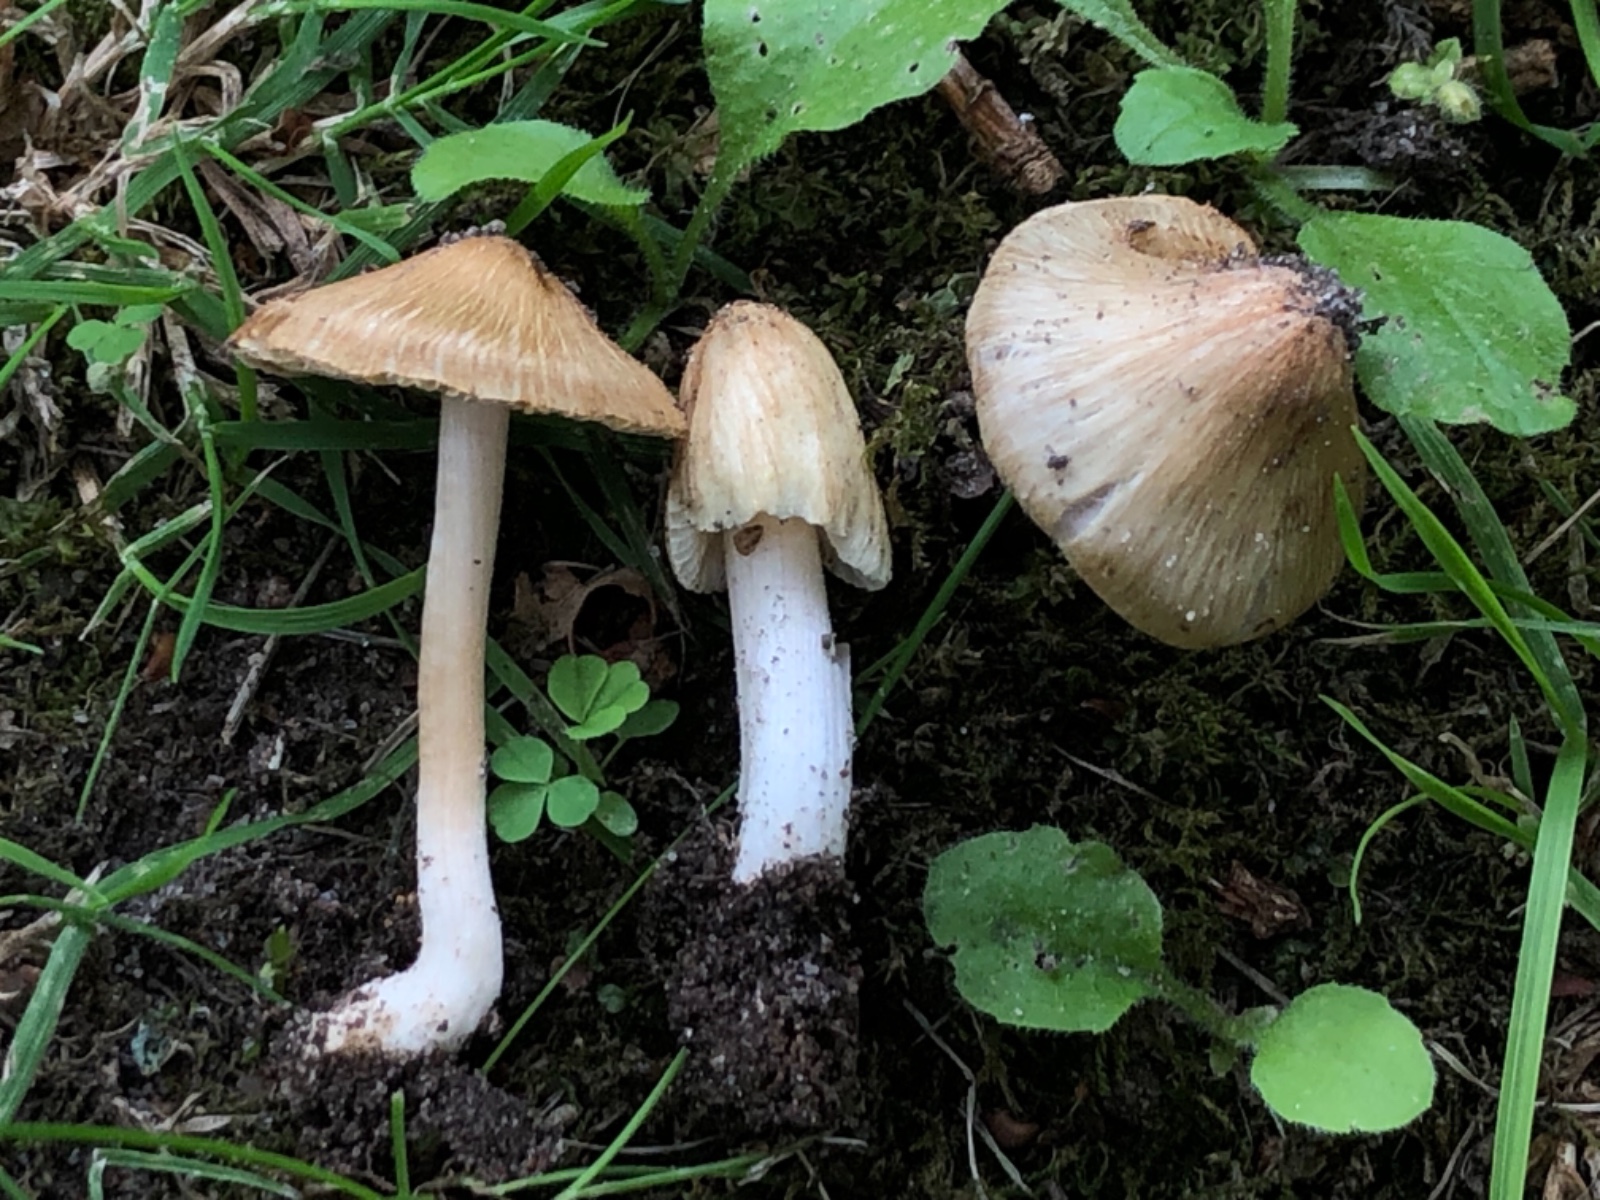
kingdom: Fungi
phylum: Basidiomycota
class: Agaricomycetes
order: Agaricales
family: Inocybaceae
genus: Pseudosperma
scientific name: Pseudosperma
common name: trævlhat
